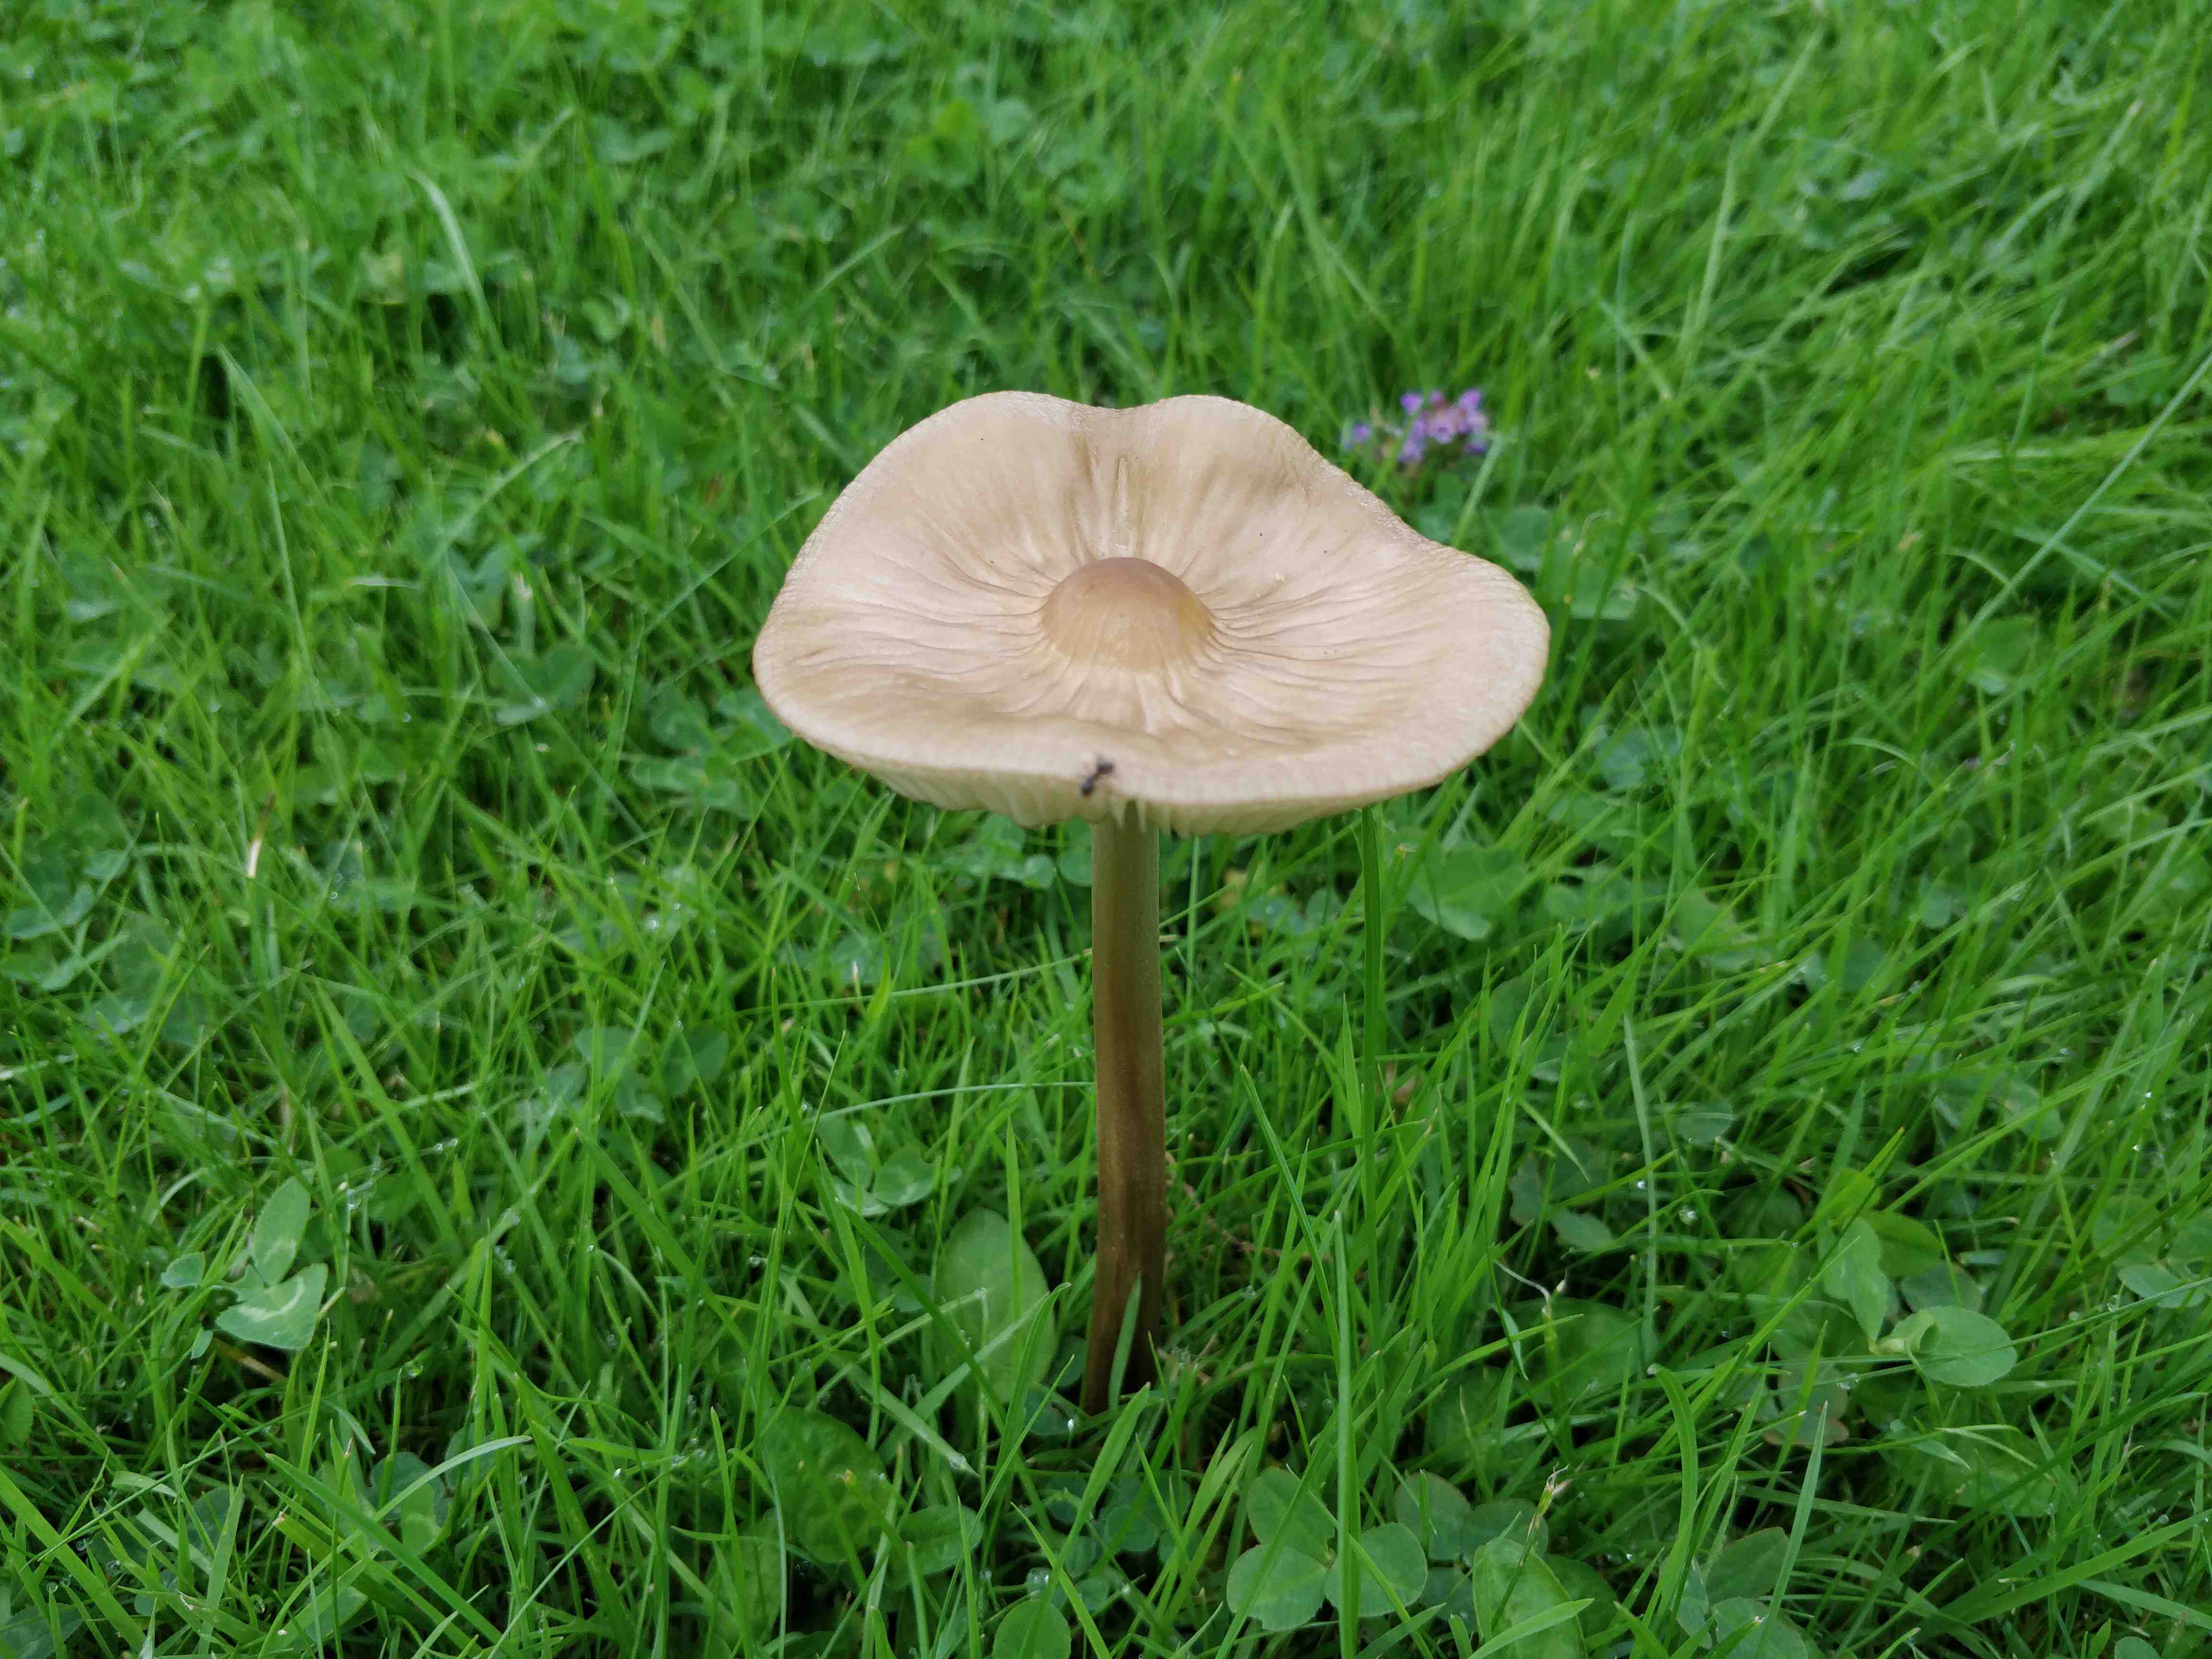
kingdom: Fungi
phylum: Basidiomycota
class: Agaricomycetes
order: Agaricales
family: Physalacriaceae
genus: Hymenopellis
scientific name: Hymenopellis radicata
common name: almindelig pælerodshat
